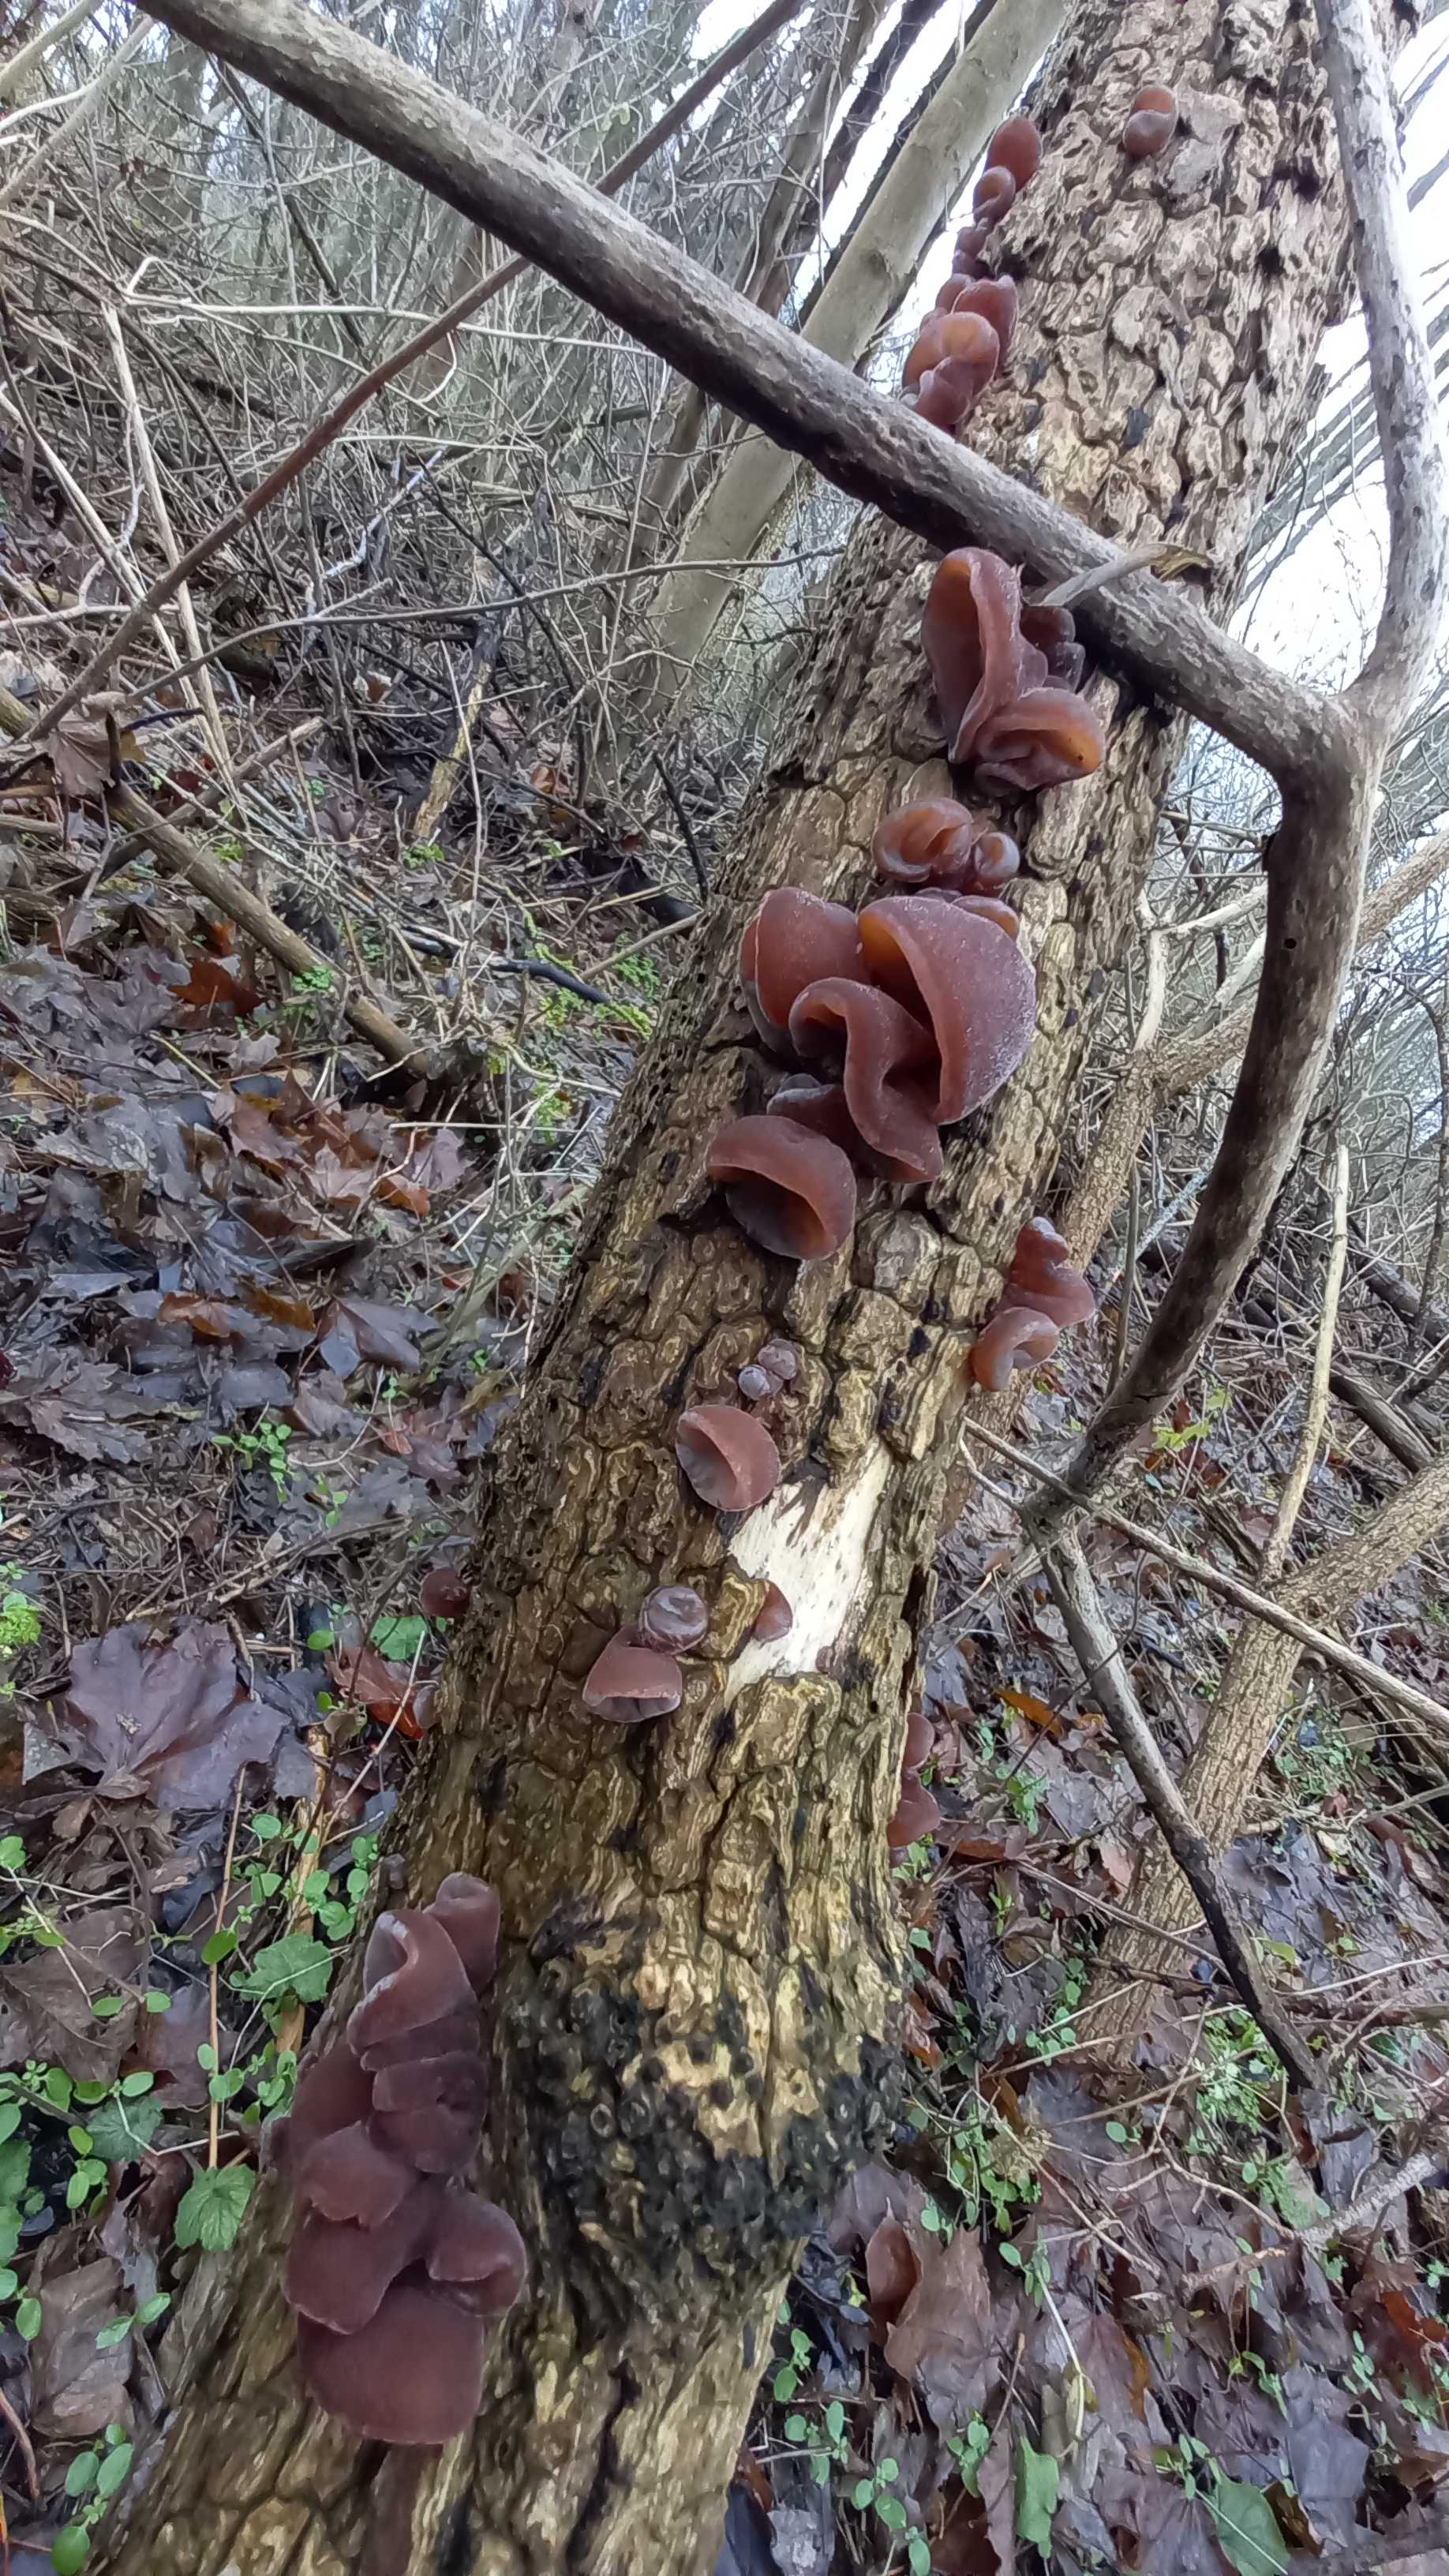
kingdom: Fungi
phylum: Basidiomycota
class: Agaricomycetes
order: Auriculariales
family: Auriculariaceae
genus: Auricularia
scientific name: Auricularia auricula-judae
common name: almindelig judasøre
